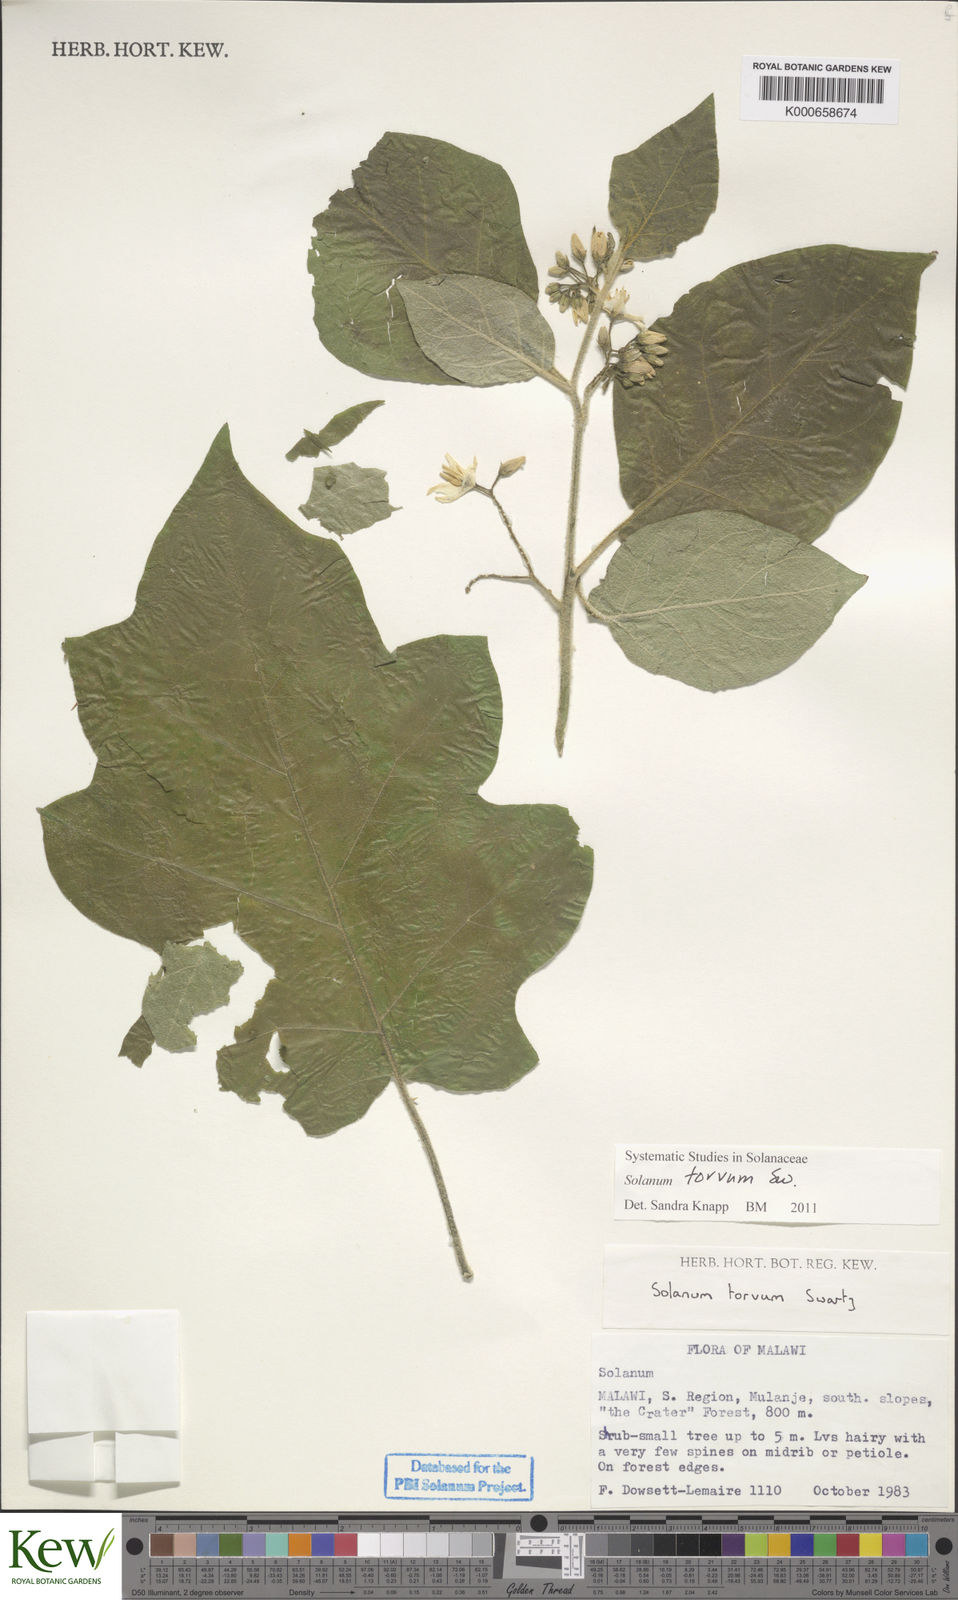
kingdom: Plantae
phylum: Tracheophyta
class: Magnoliopsida
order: Solanales
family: Solanaceae
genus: Solanum
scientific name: Solanum torvum
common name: Turkey berry
